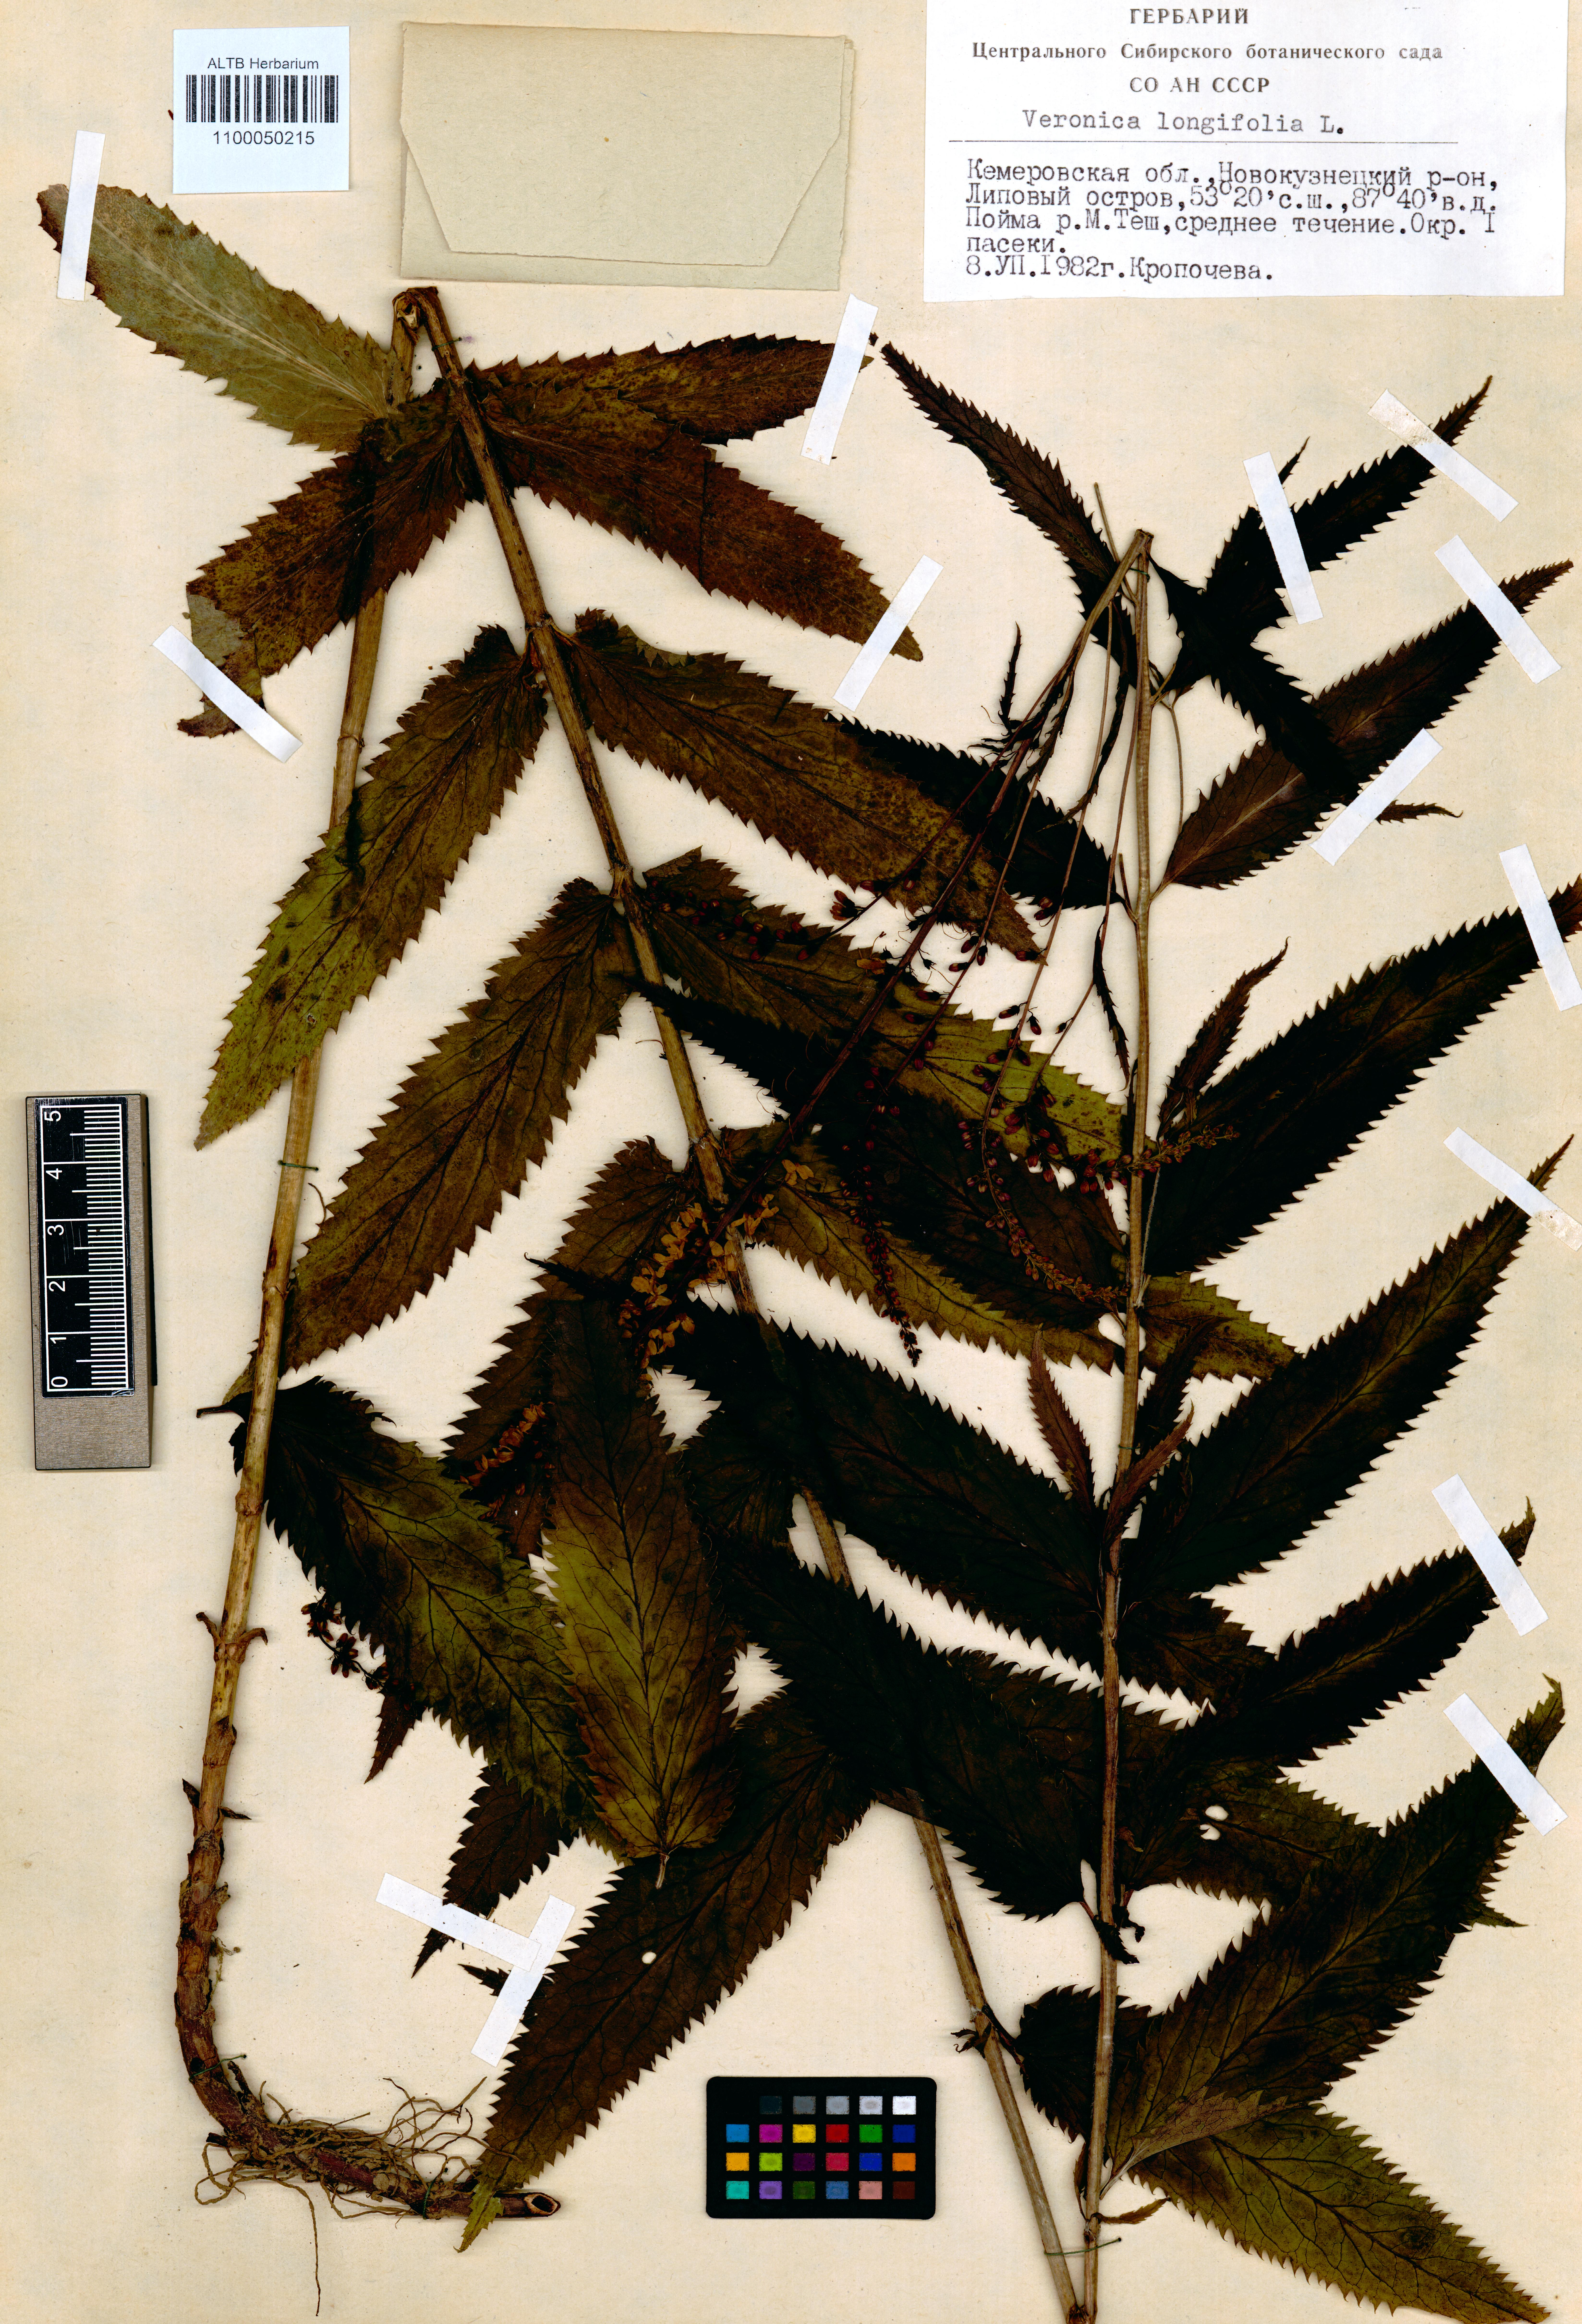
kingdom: Plantae
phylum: Tracheophyta
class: Magnoliopsida
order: Lamiales
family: Plantaginaceae
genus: Veronica
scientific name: Veronica longifolia
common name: Garden speedwell
